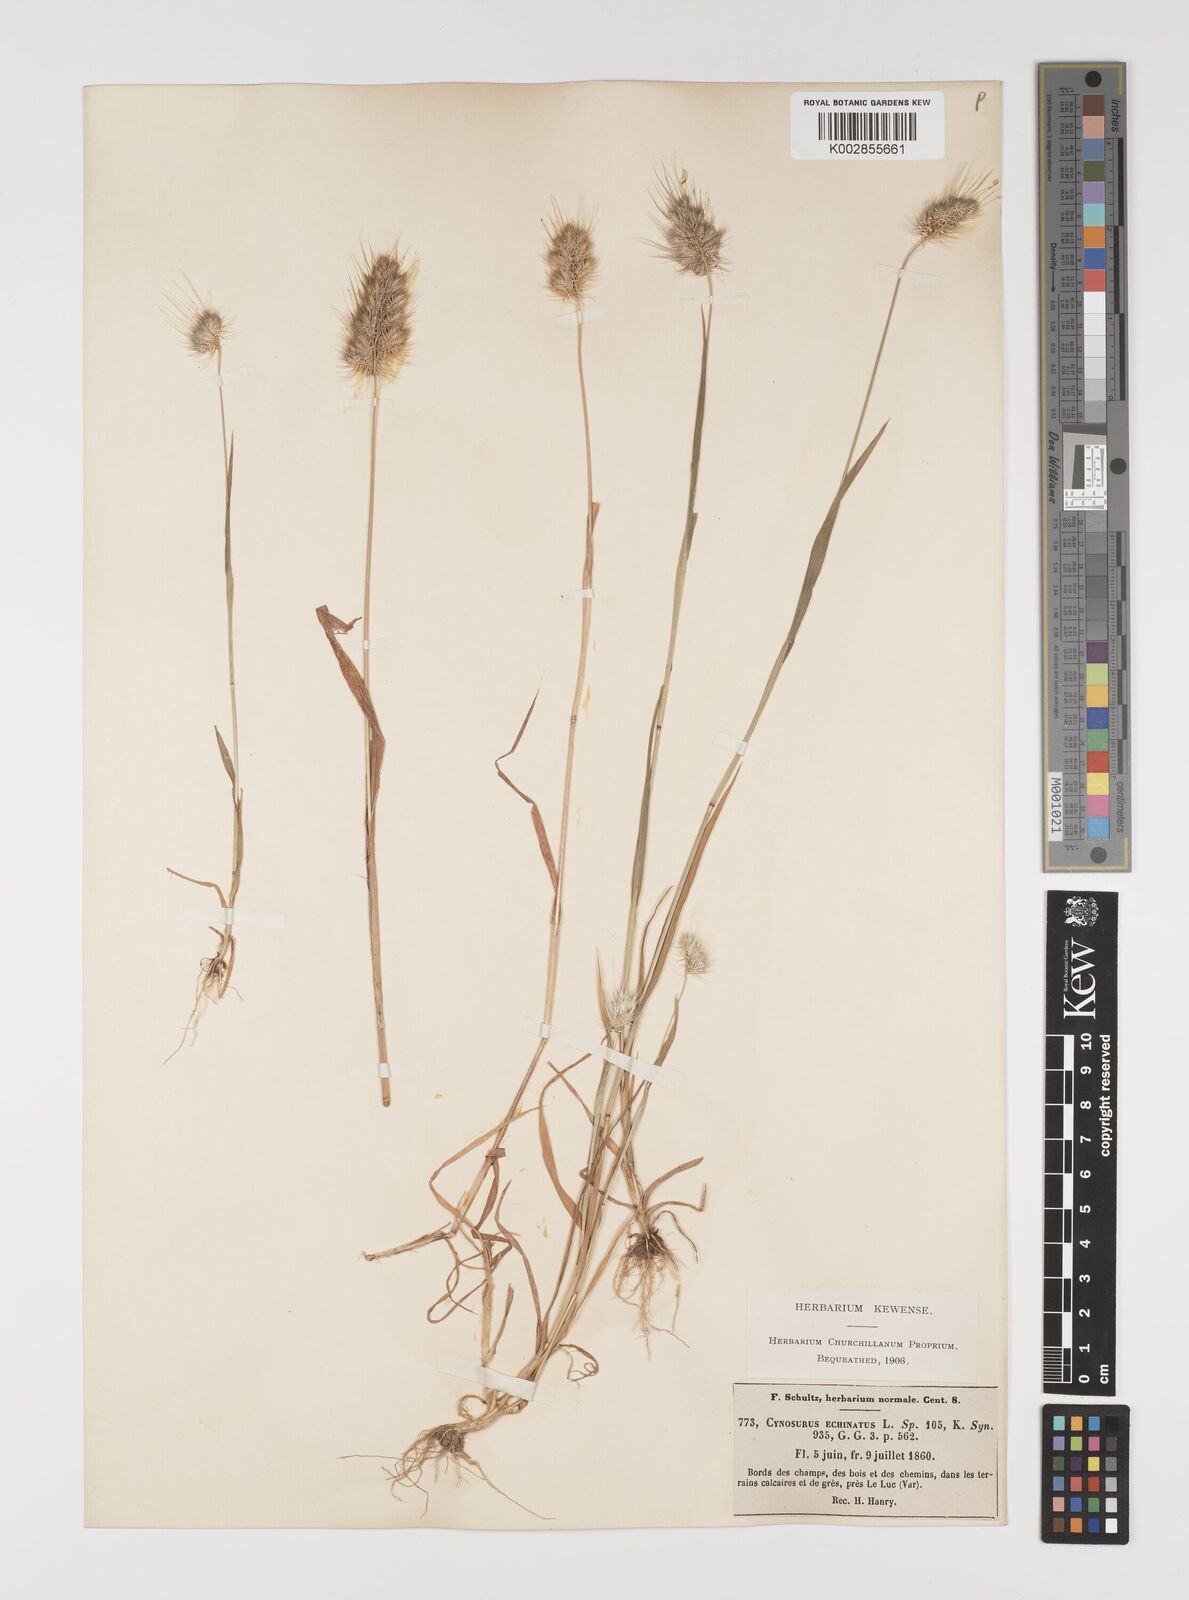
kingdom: Plantae
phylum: Tracheophyta
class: Liliopsida
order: Poales
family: Poaceae
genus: Cynosurus
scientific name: Cynosurus echinatus
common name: Rough dog's-tail
